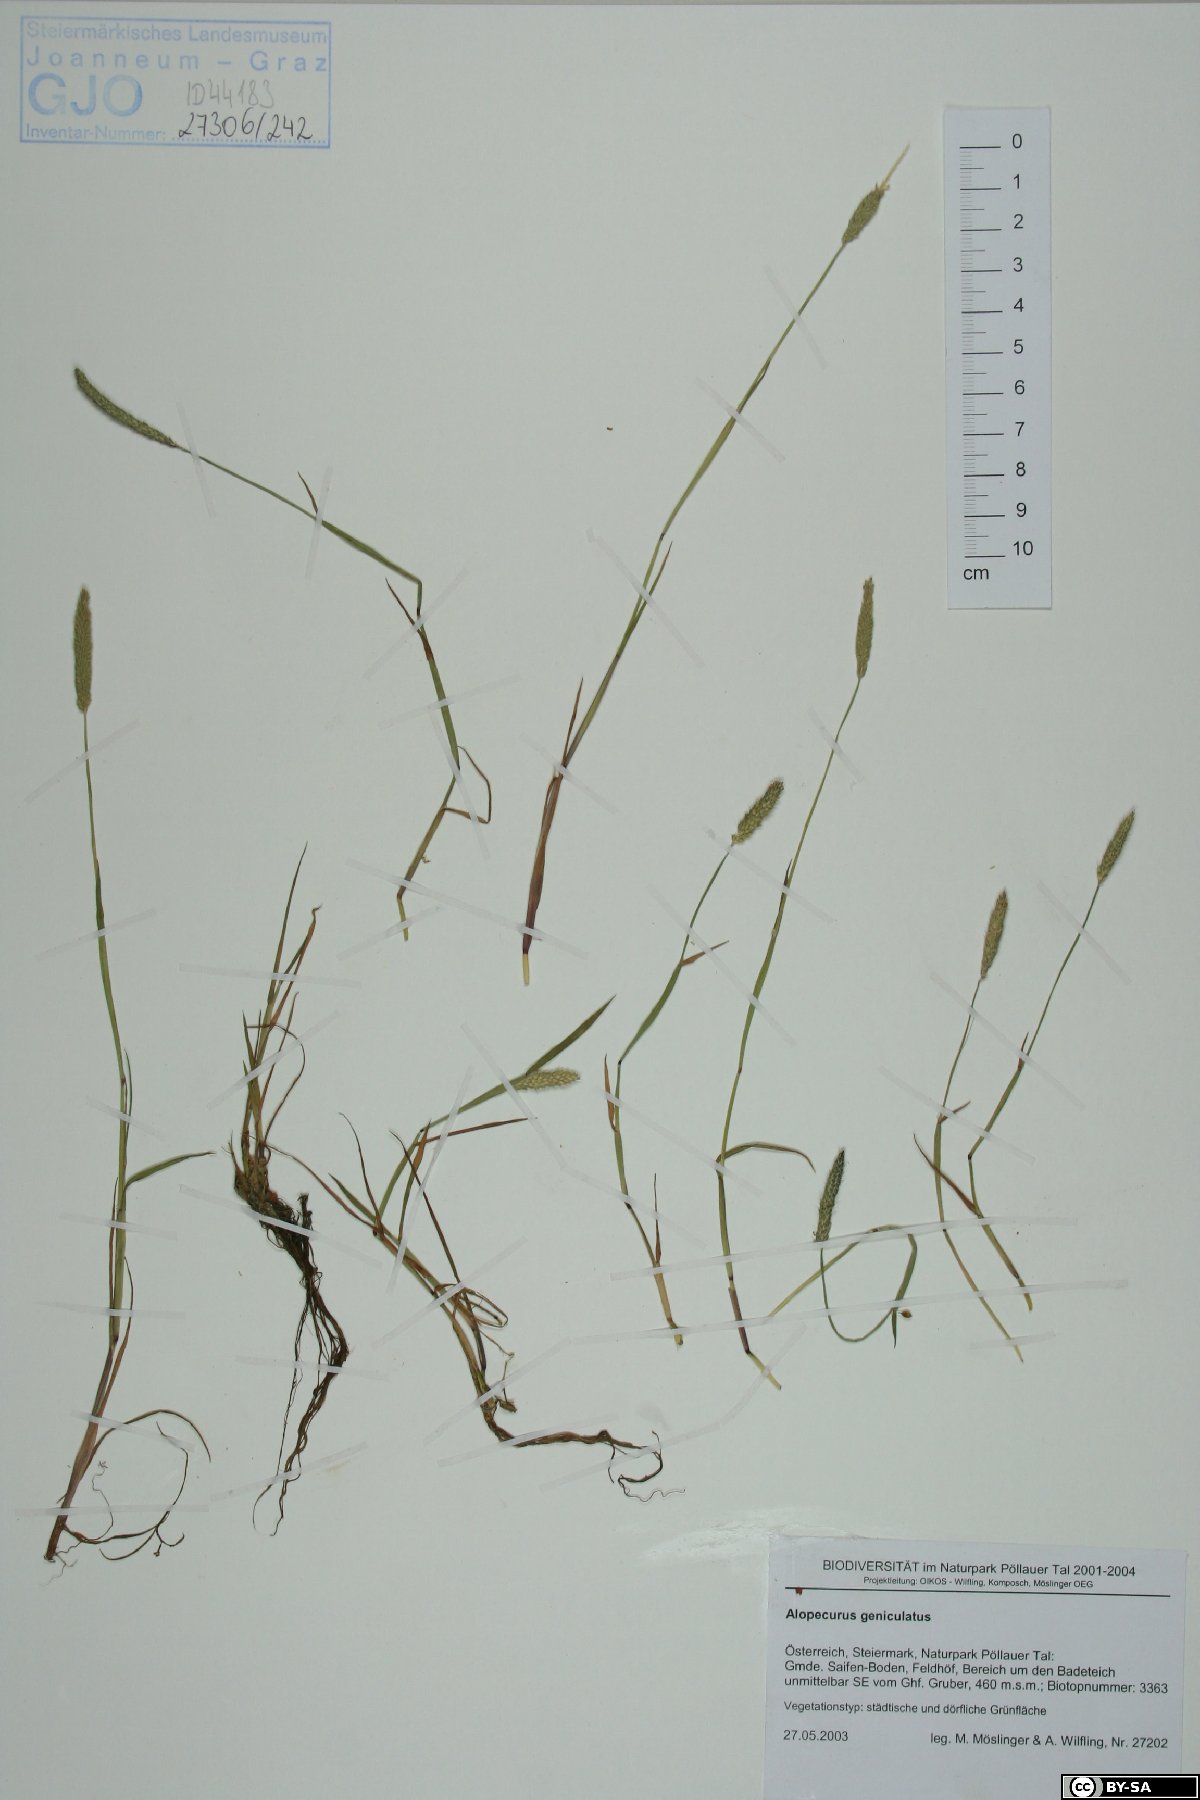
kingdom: Plantae
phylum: Tracheophyta
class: Liliopsida
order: Poales
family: Poaceae
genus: Alopecurus
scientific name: Alopecurus geniculatus
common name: Water foxtail
